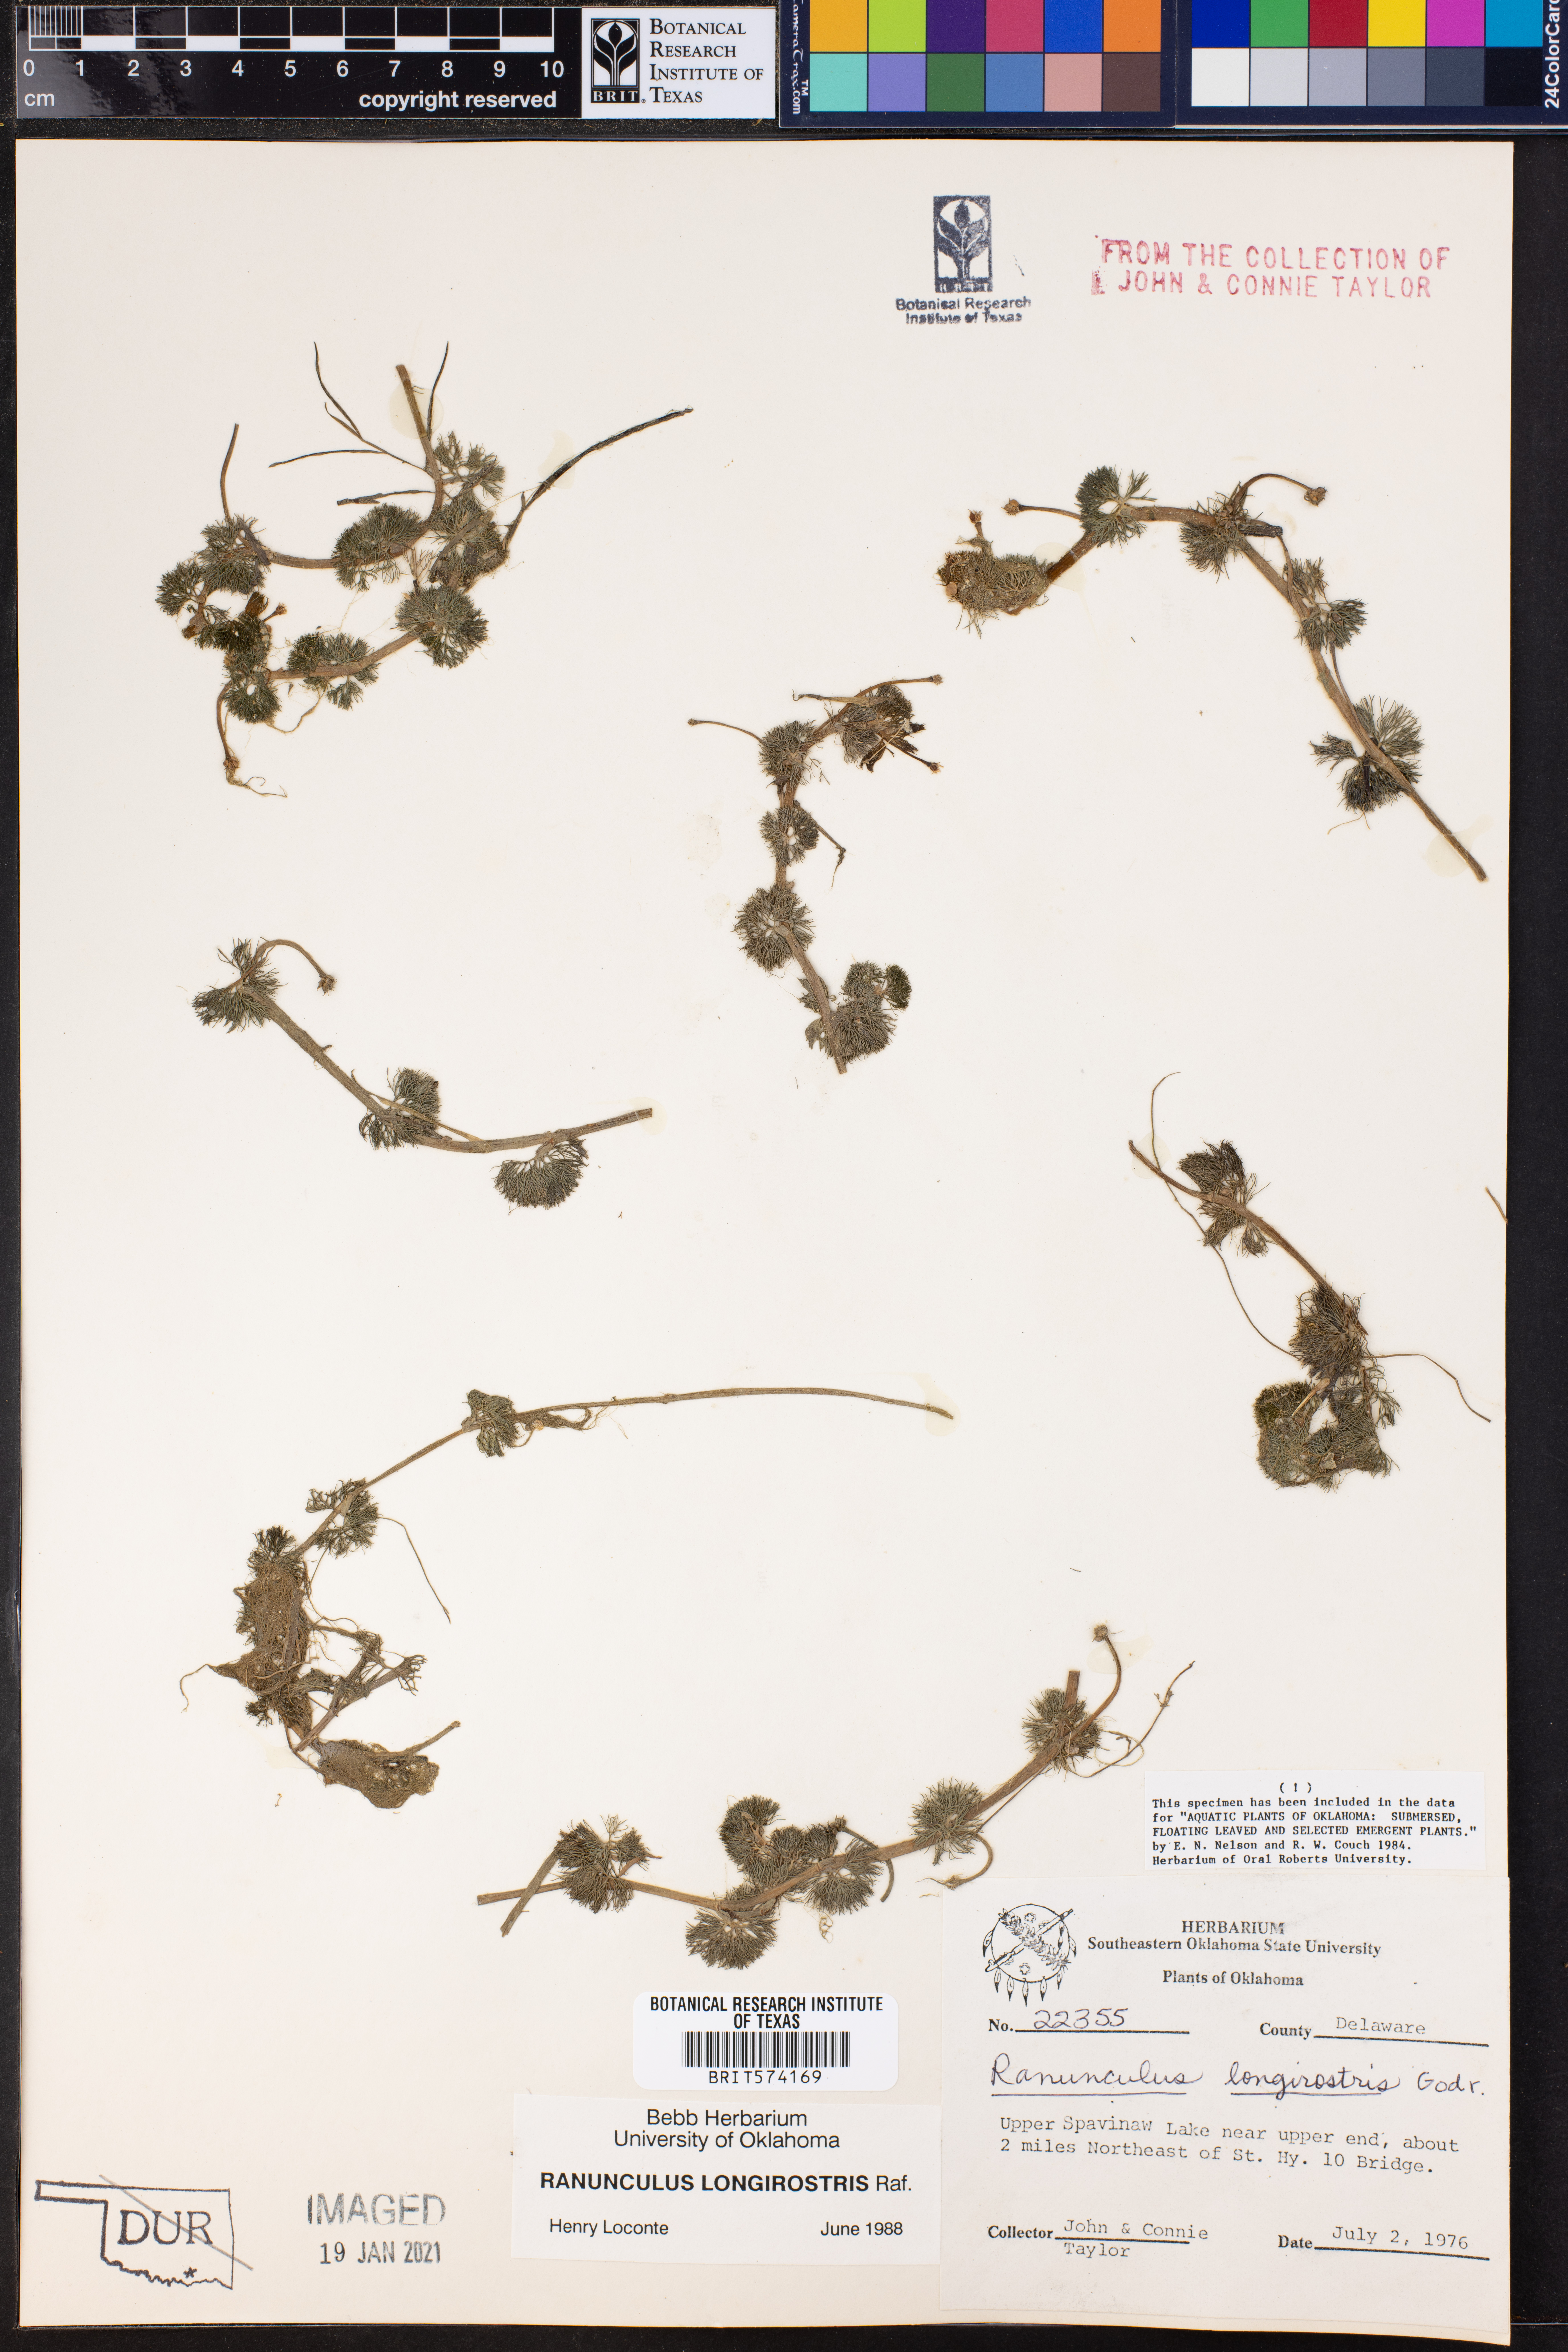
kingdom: Plantae
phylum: Tracheophyta
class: Magnoliopsida
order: Ranunculales
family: Ranunculaceae
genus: Ranunculus
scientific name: Ranunculus longirostris
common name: Curly white water-crowfoot
